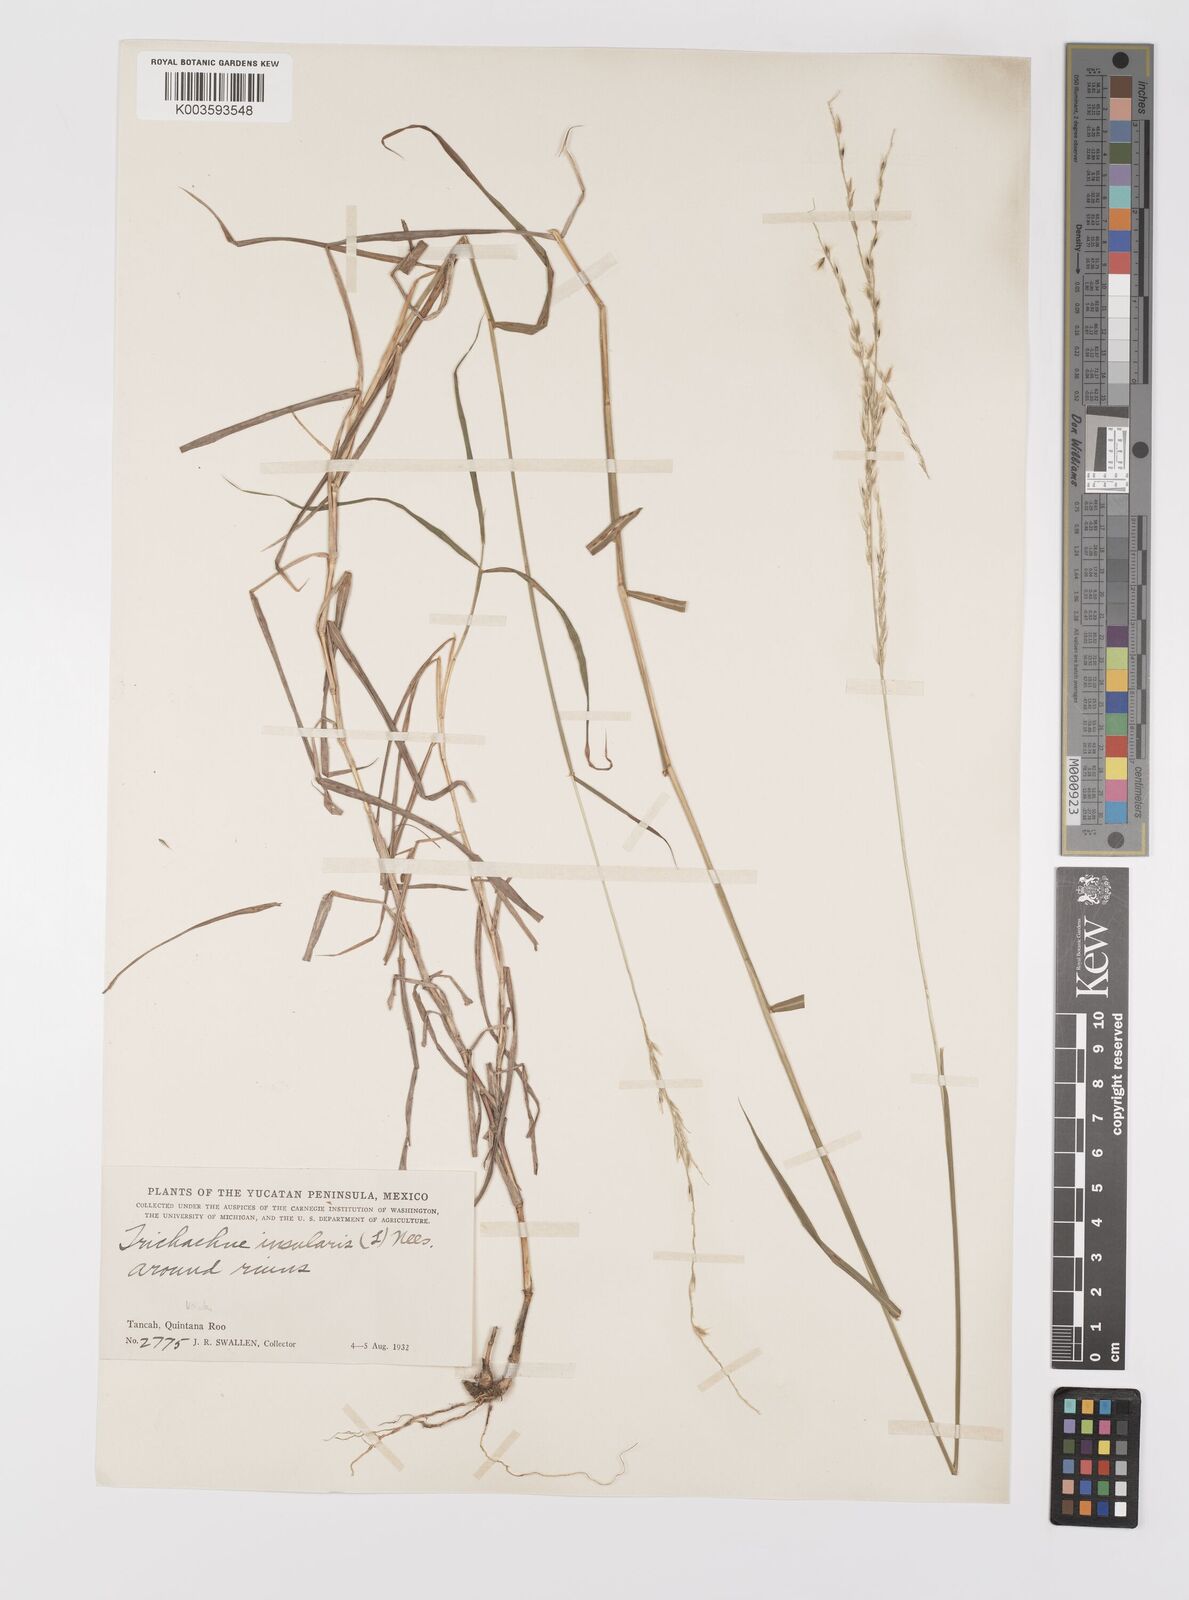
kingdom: Plantae
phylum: Tracheophyta
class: Liliopsida
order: Poales
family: Poaceae
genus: Digitaria
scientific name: Digitaria sellowii
